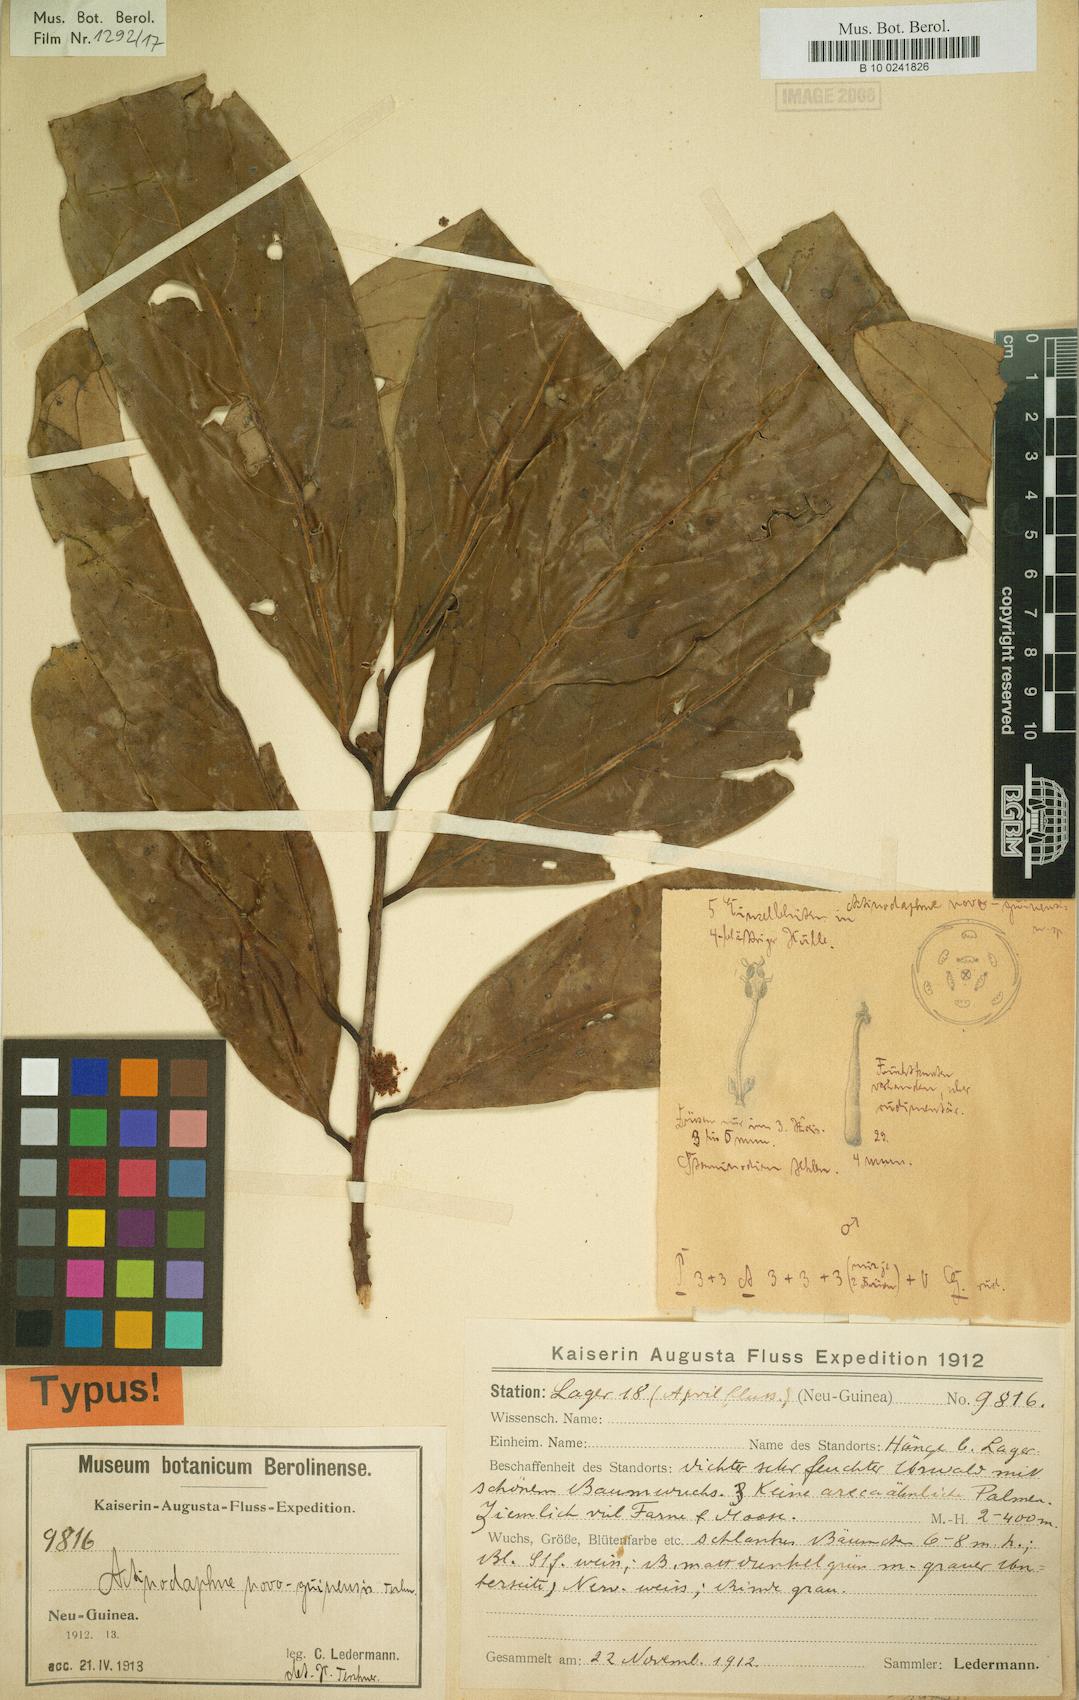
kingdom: Plantae
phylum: Tracheophyta
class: Magnoliopsida
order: Laurales
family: Lauraceae
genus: Actinodaphne
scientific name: Actinodaphne nitida
